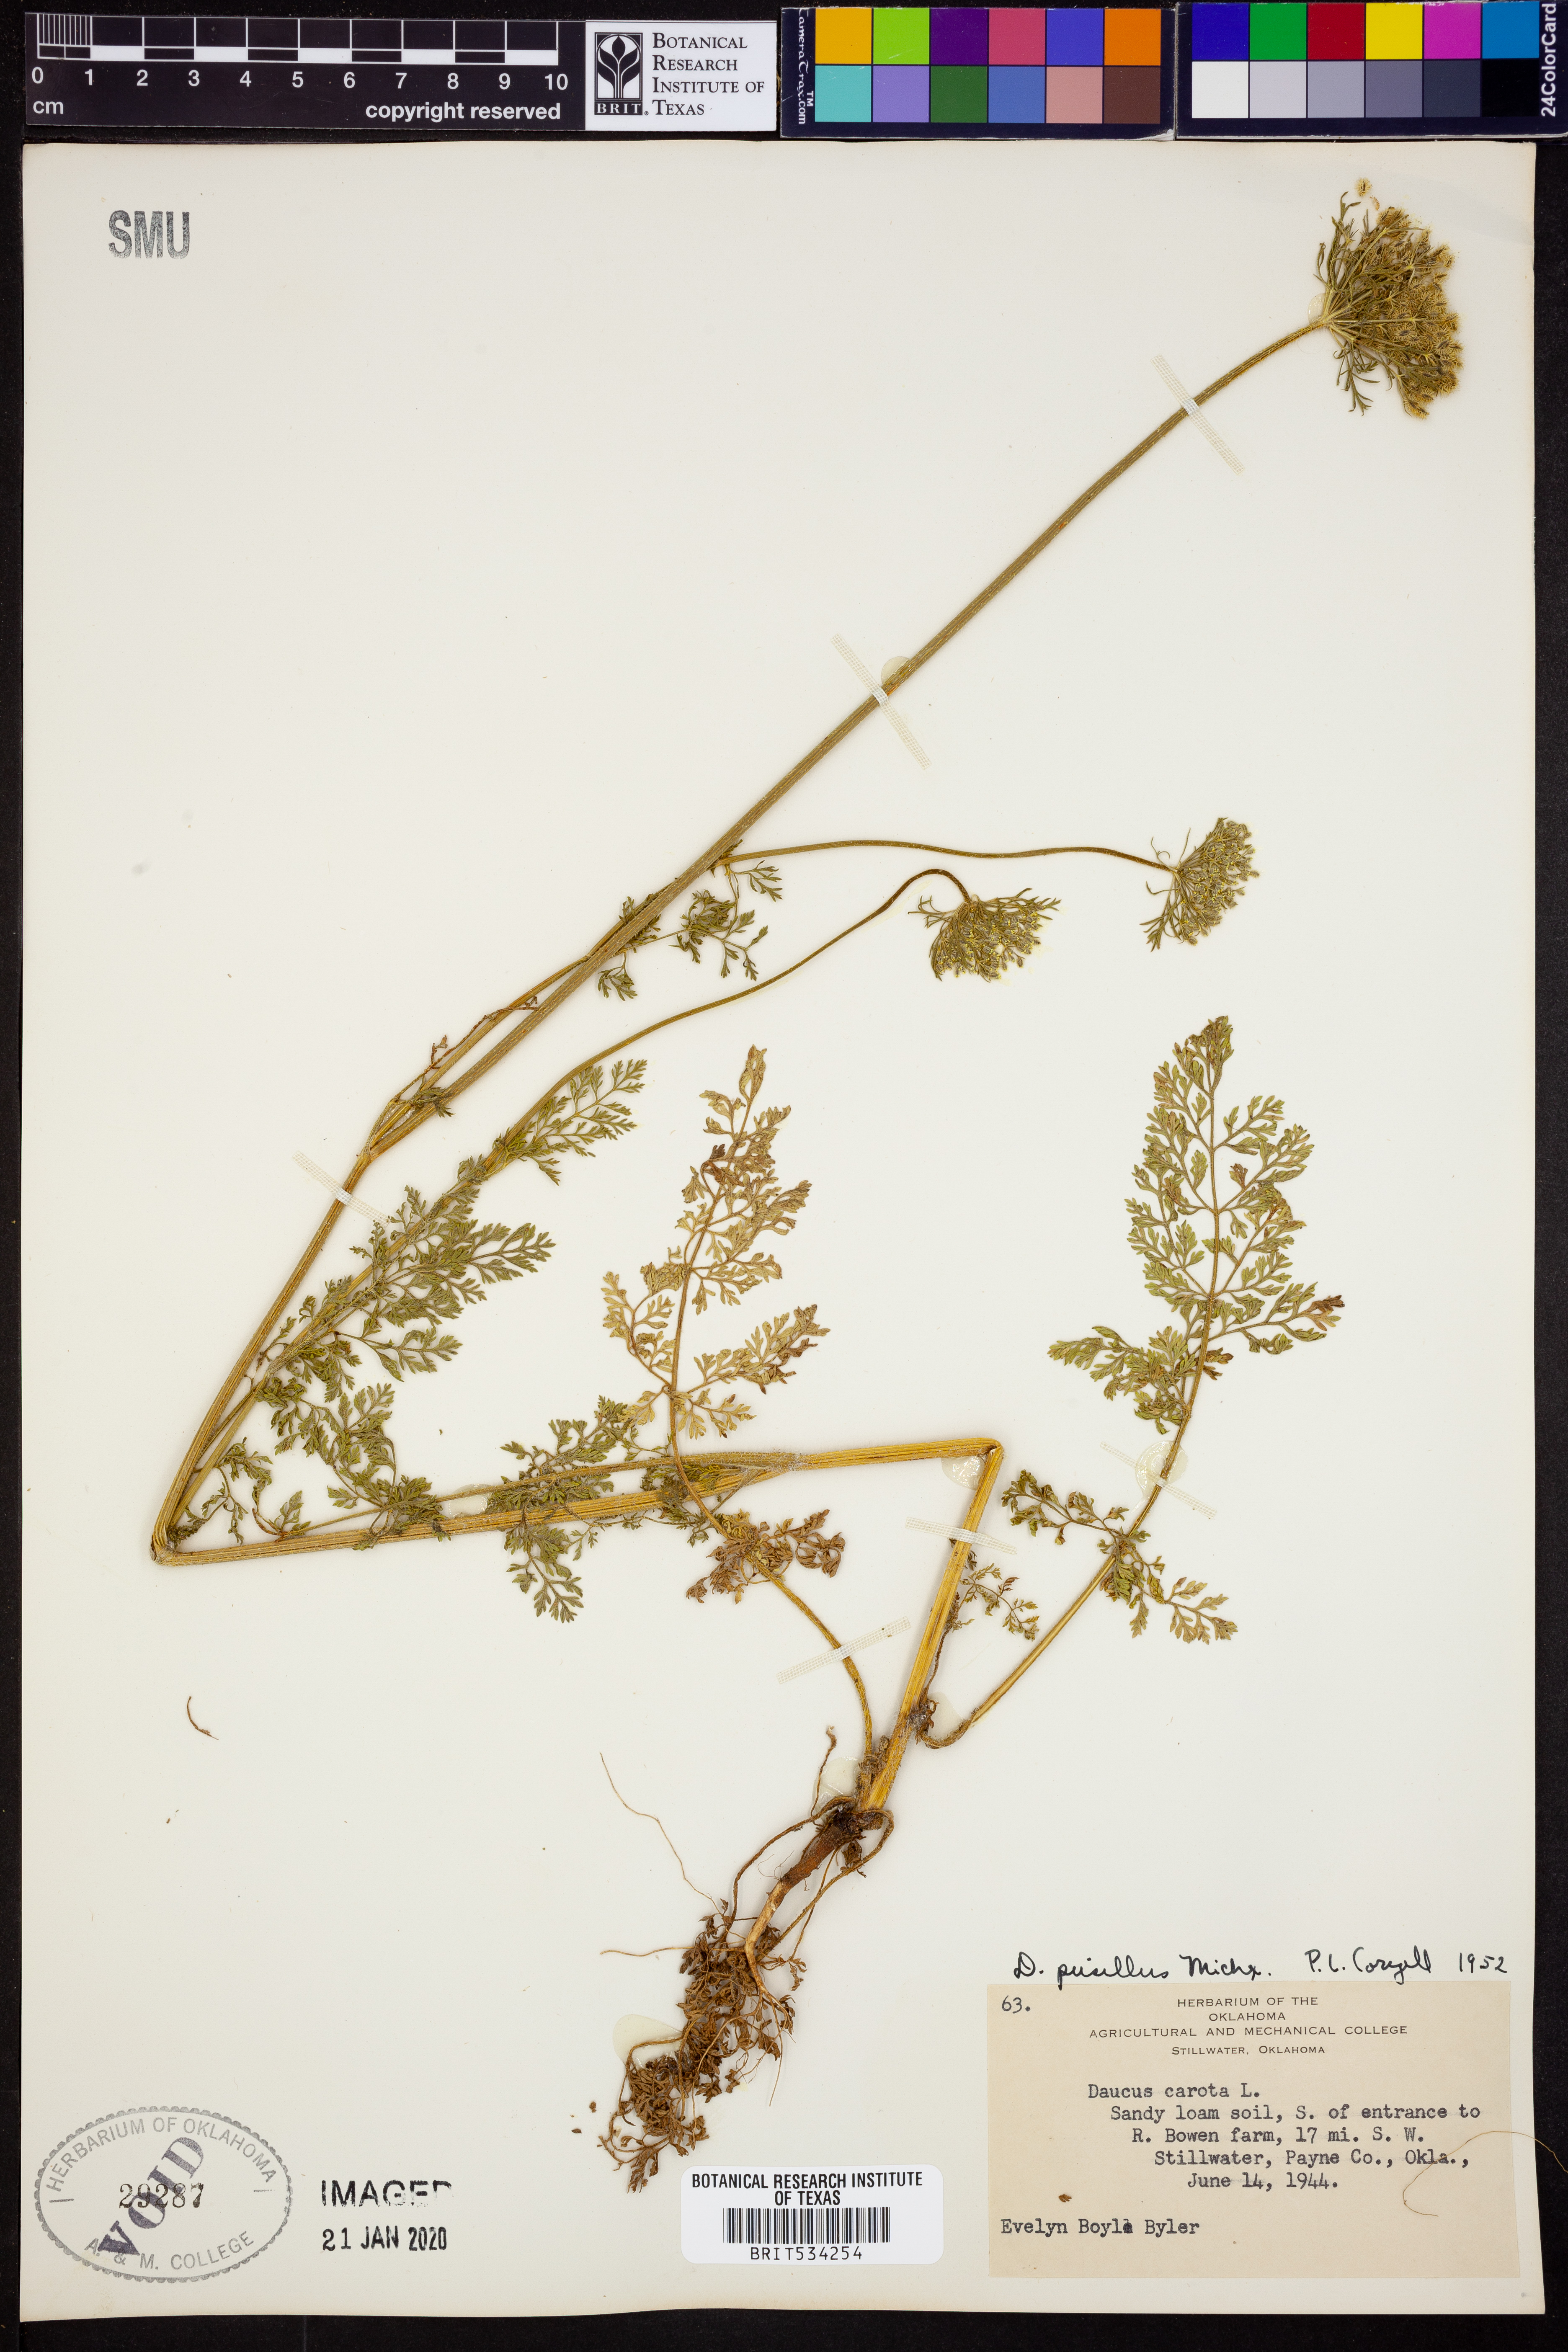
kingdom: Plantae
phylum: Tracheophyta
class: Magnoliopsida
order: Apiales
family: Apiaceae
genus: Daucus
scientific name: Daucus pusillus
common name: Southwest wild carrot
